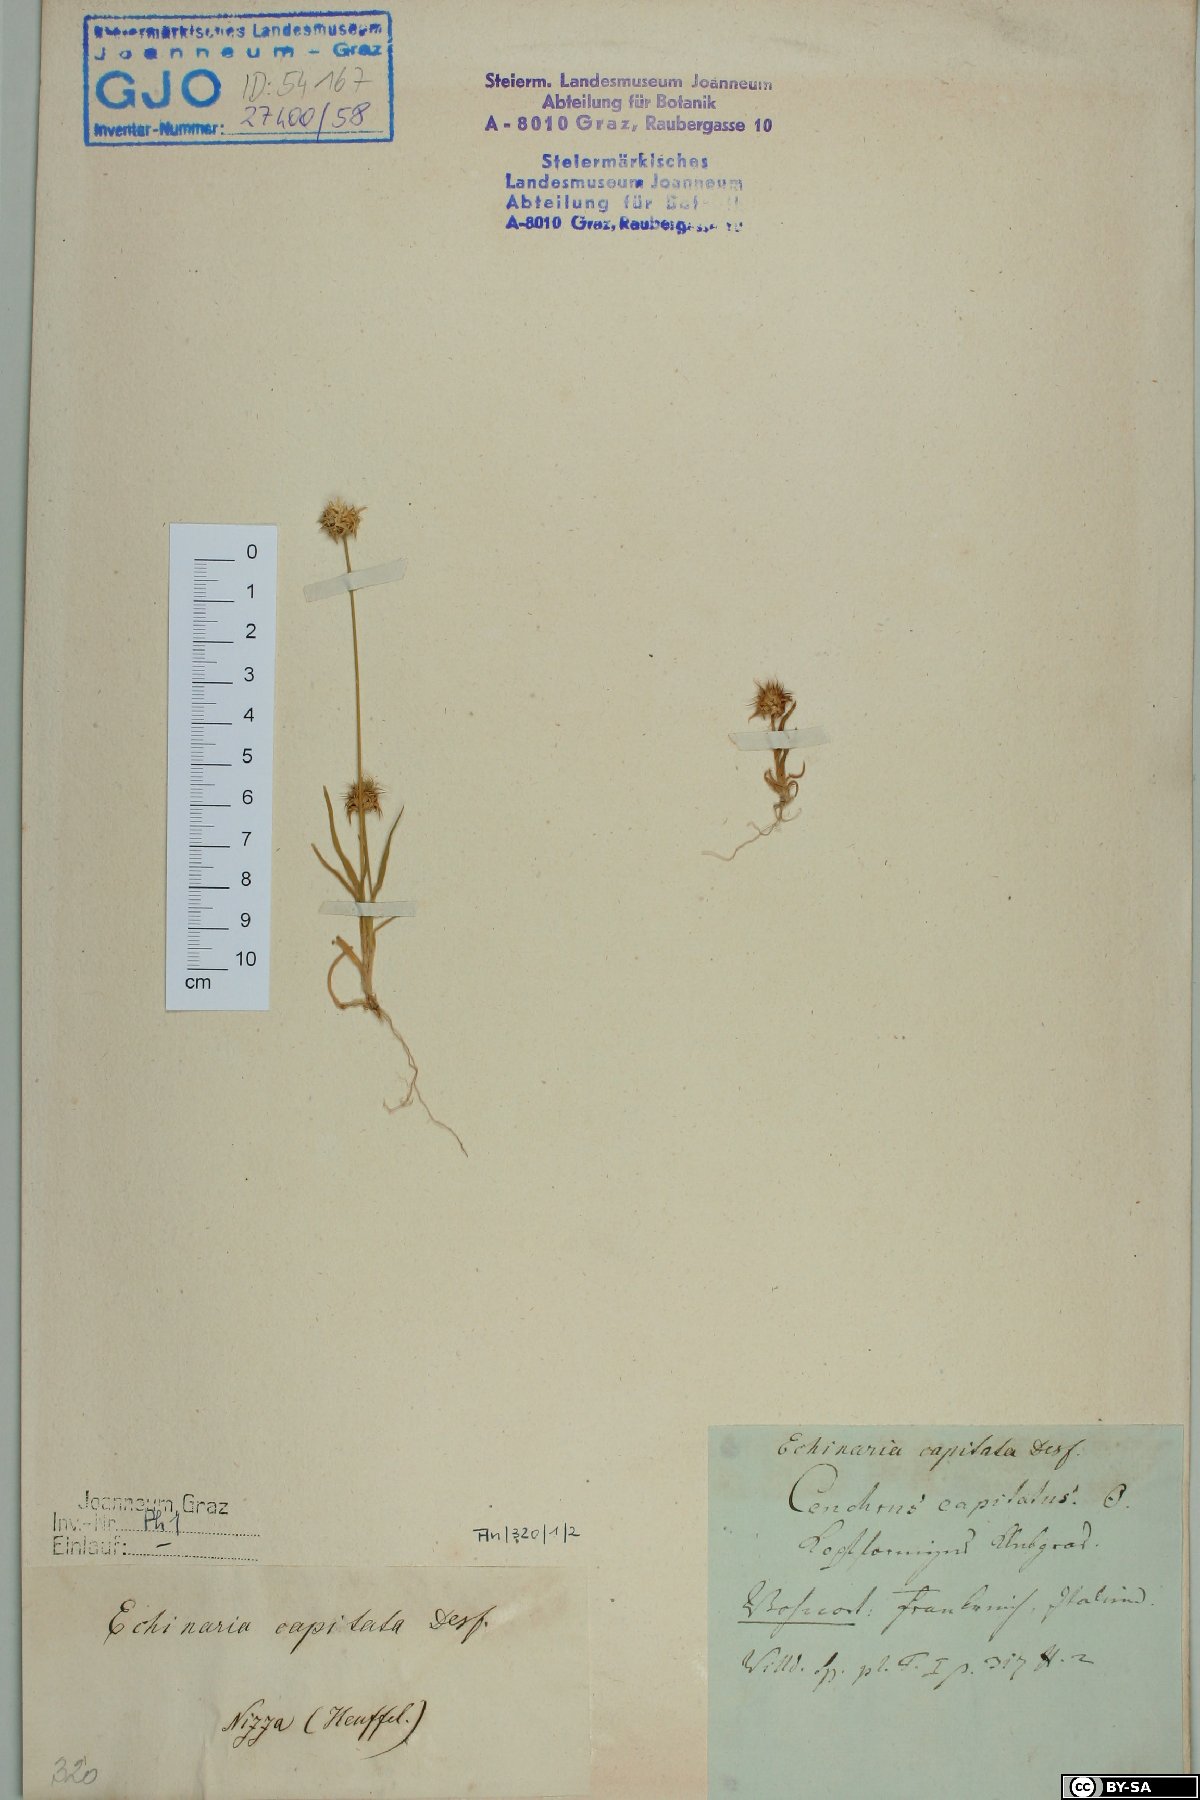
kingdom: Plantae
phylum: Tracheophyta
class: Liliopsida
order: Poales
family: Poaceae
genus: Echinaria
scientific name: Echinaria capitata
